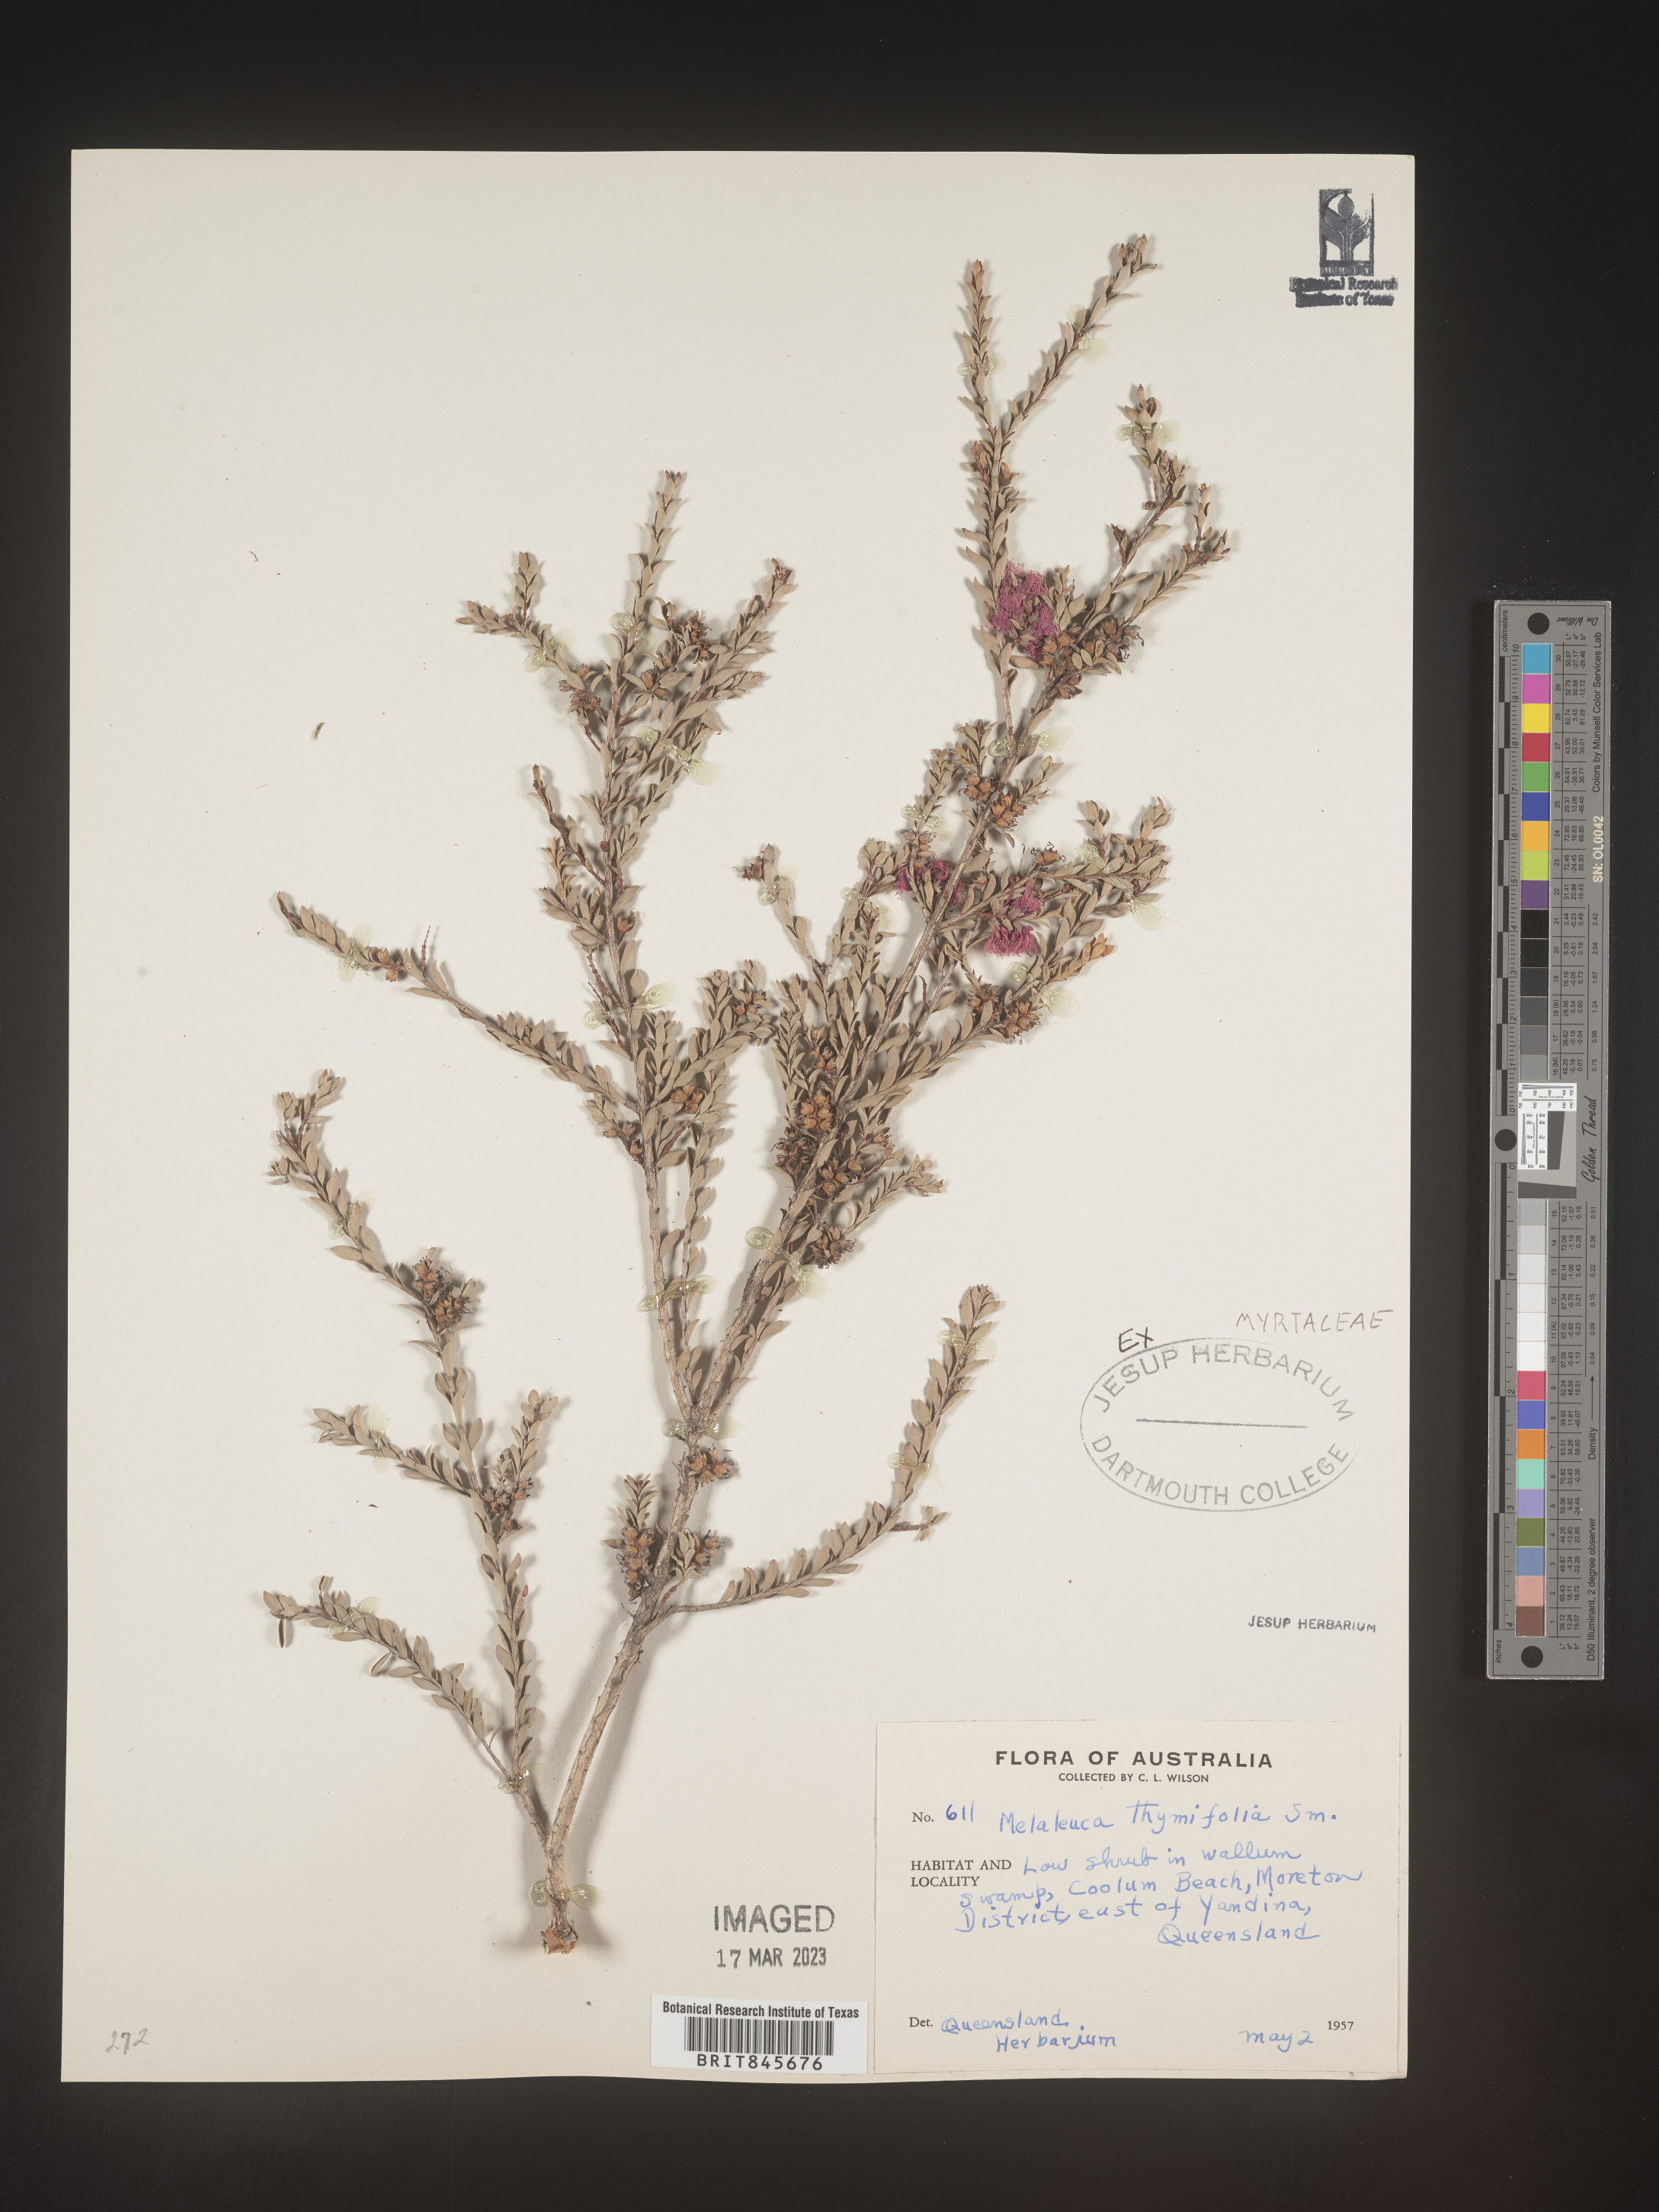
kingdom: Plantae
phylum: Tracheophyta
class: Magnoliopsida
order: Myrtales
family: Myrtaceae
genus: Melaleuca
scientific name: Melaleuca
